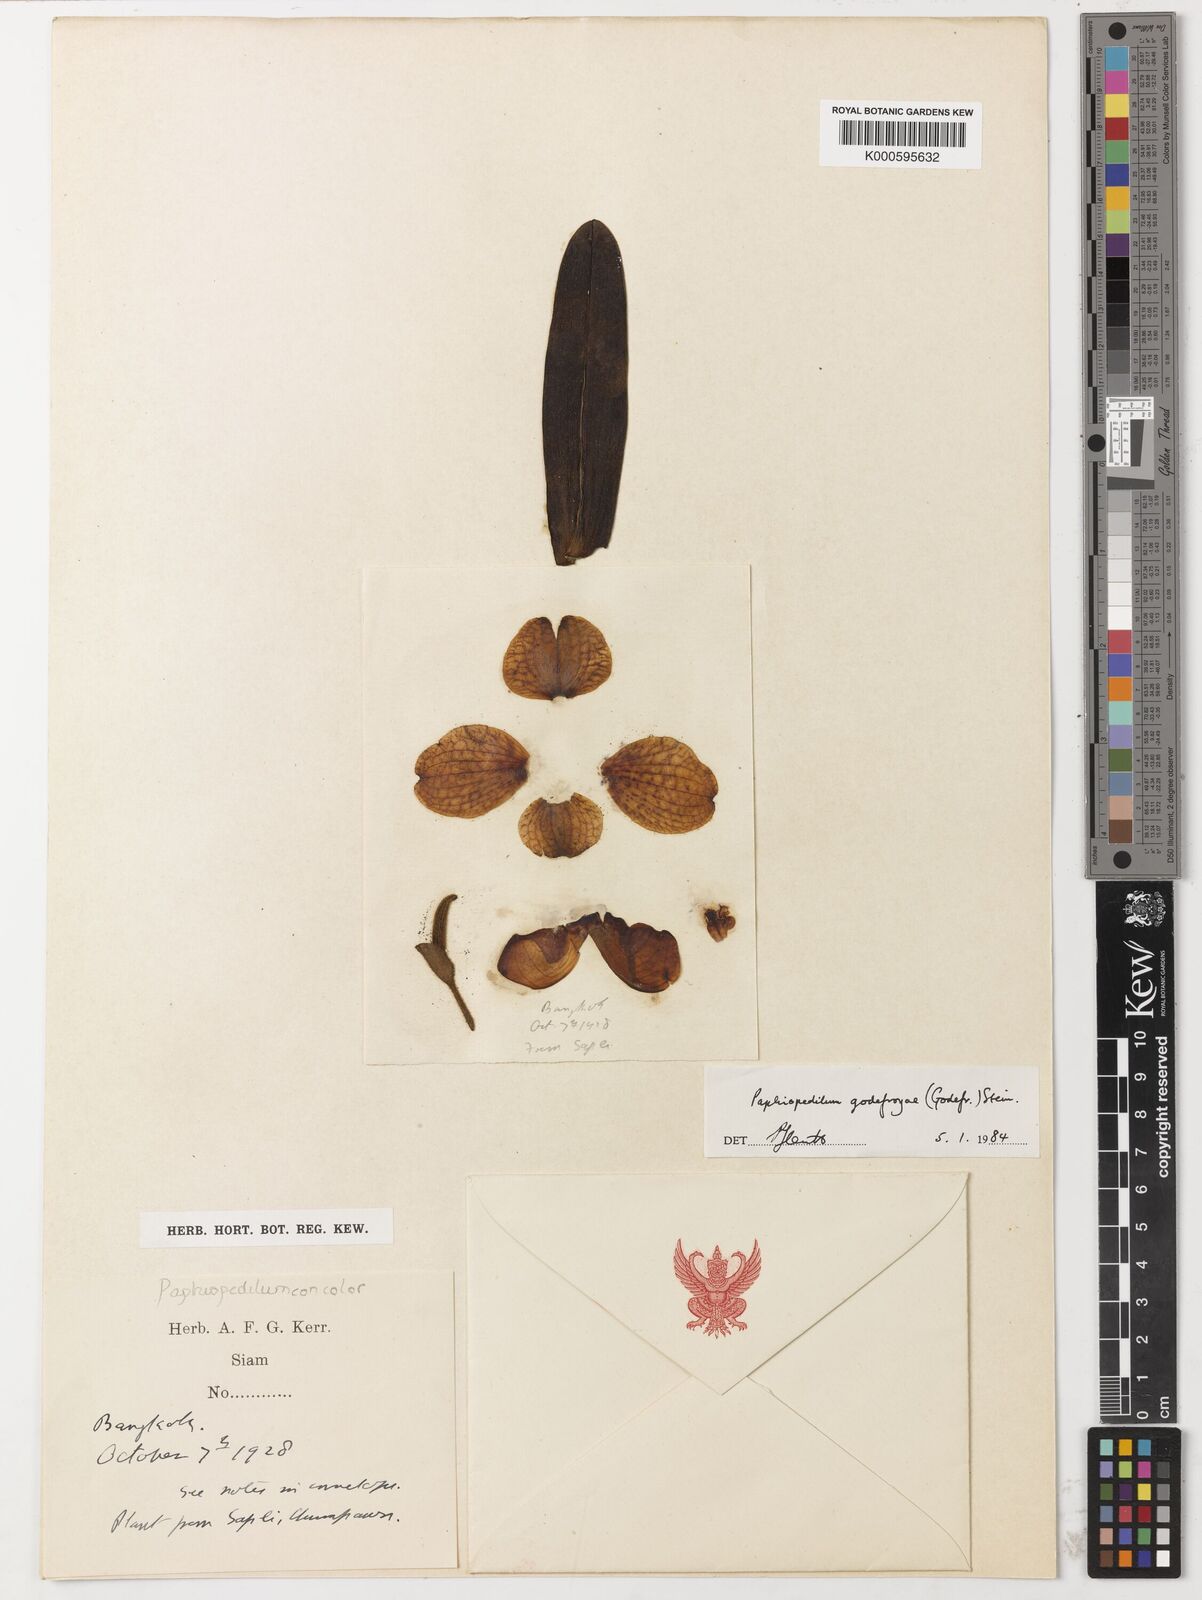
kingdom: Plantae
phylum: Tracheophyta
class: Liliopsida
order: Asparagales
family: Orchidaceae
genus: Paphiopedilum
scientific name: Paphiopedilum godefroyae
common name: Godefroy's paphiopedilum
